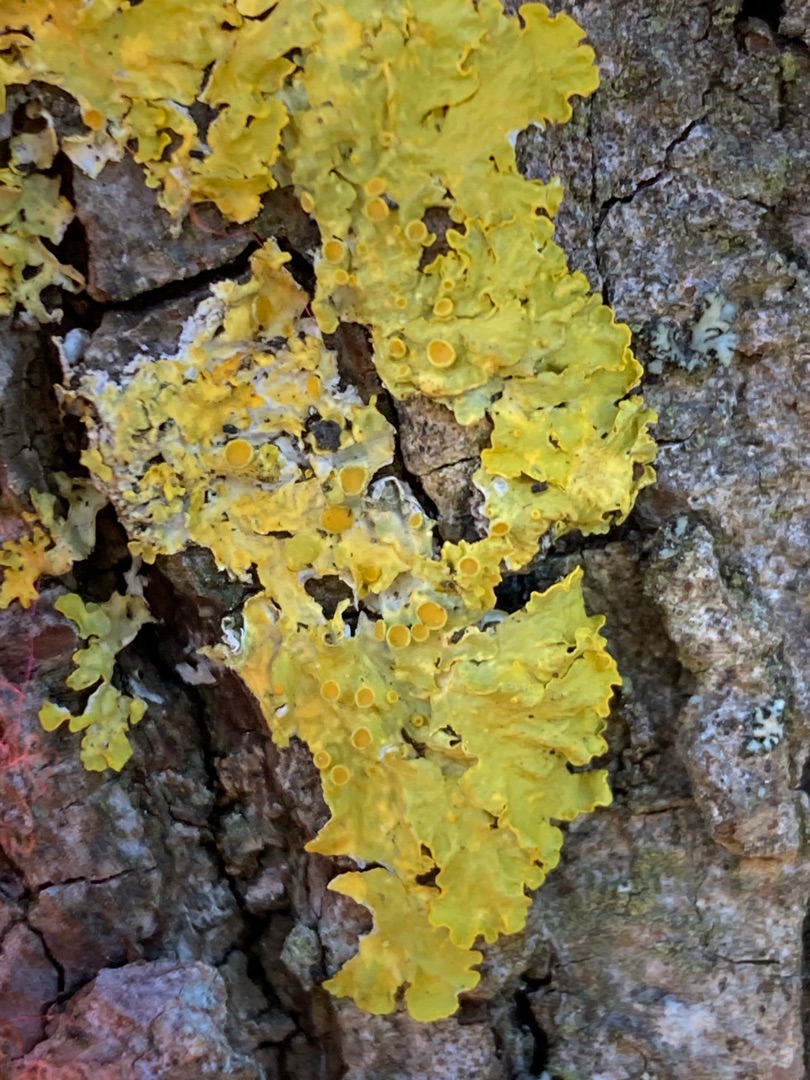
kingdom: Fungi
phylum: Ascomycota
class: Lecanoromycetes
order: Teloschistales
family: Teloschistaceae
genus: Xanthoria
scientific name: Xanthoria parietina
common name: Almindelig væggelav
